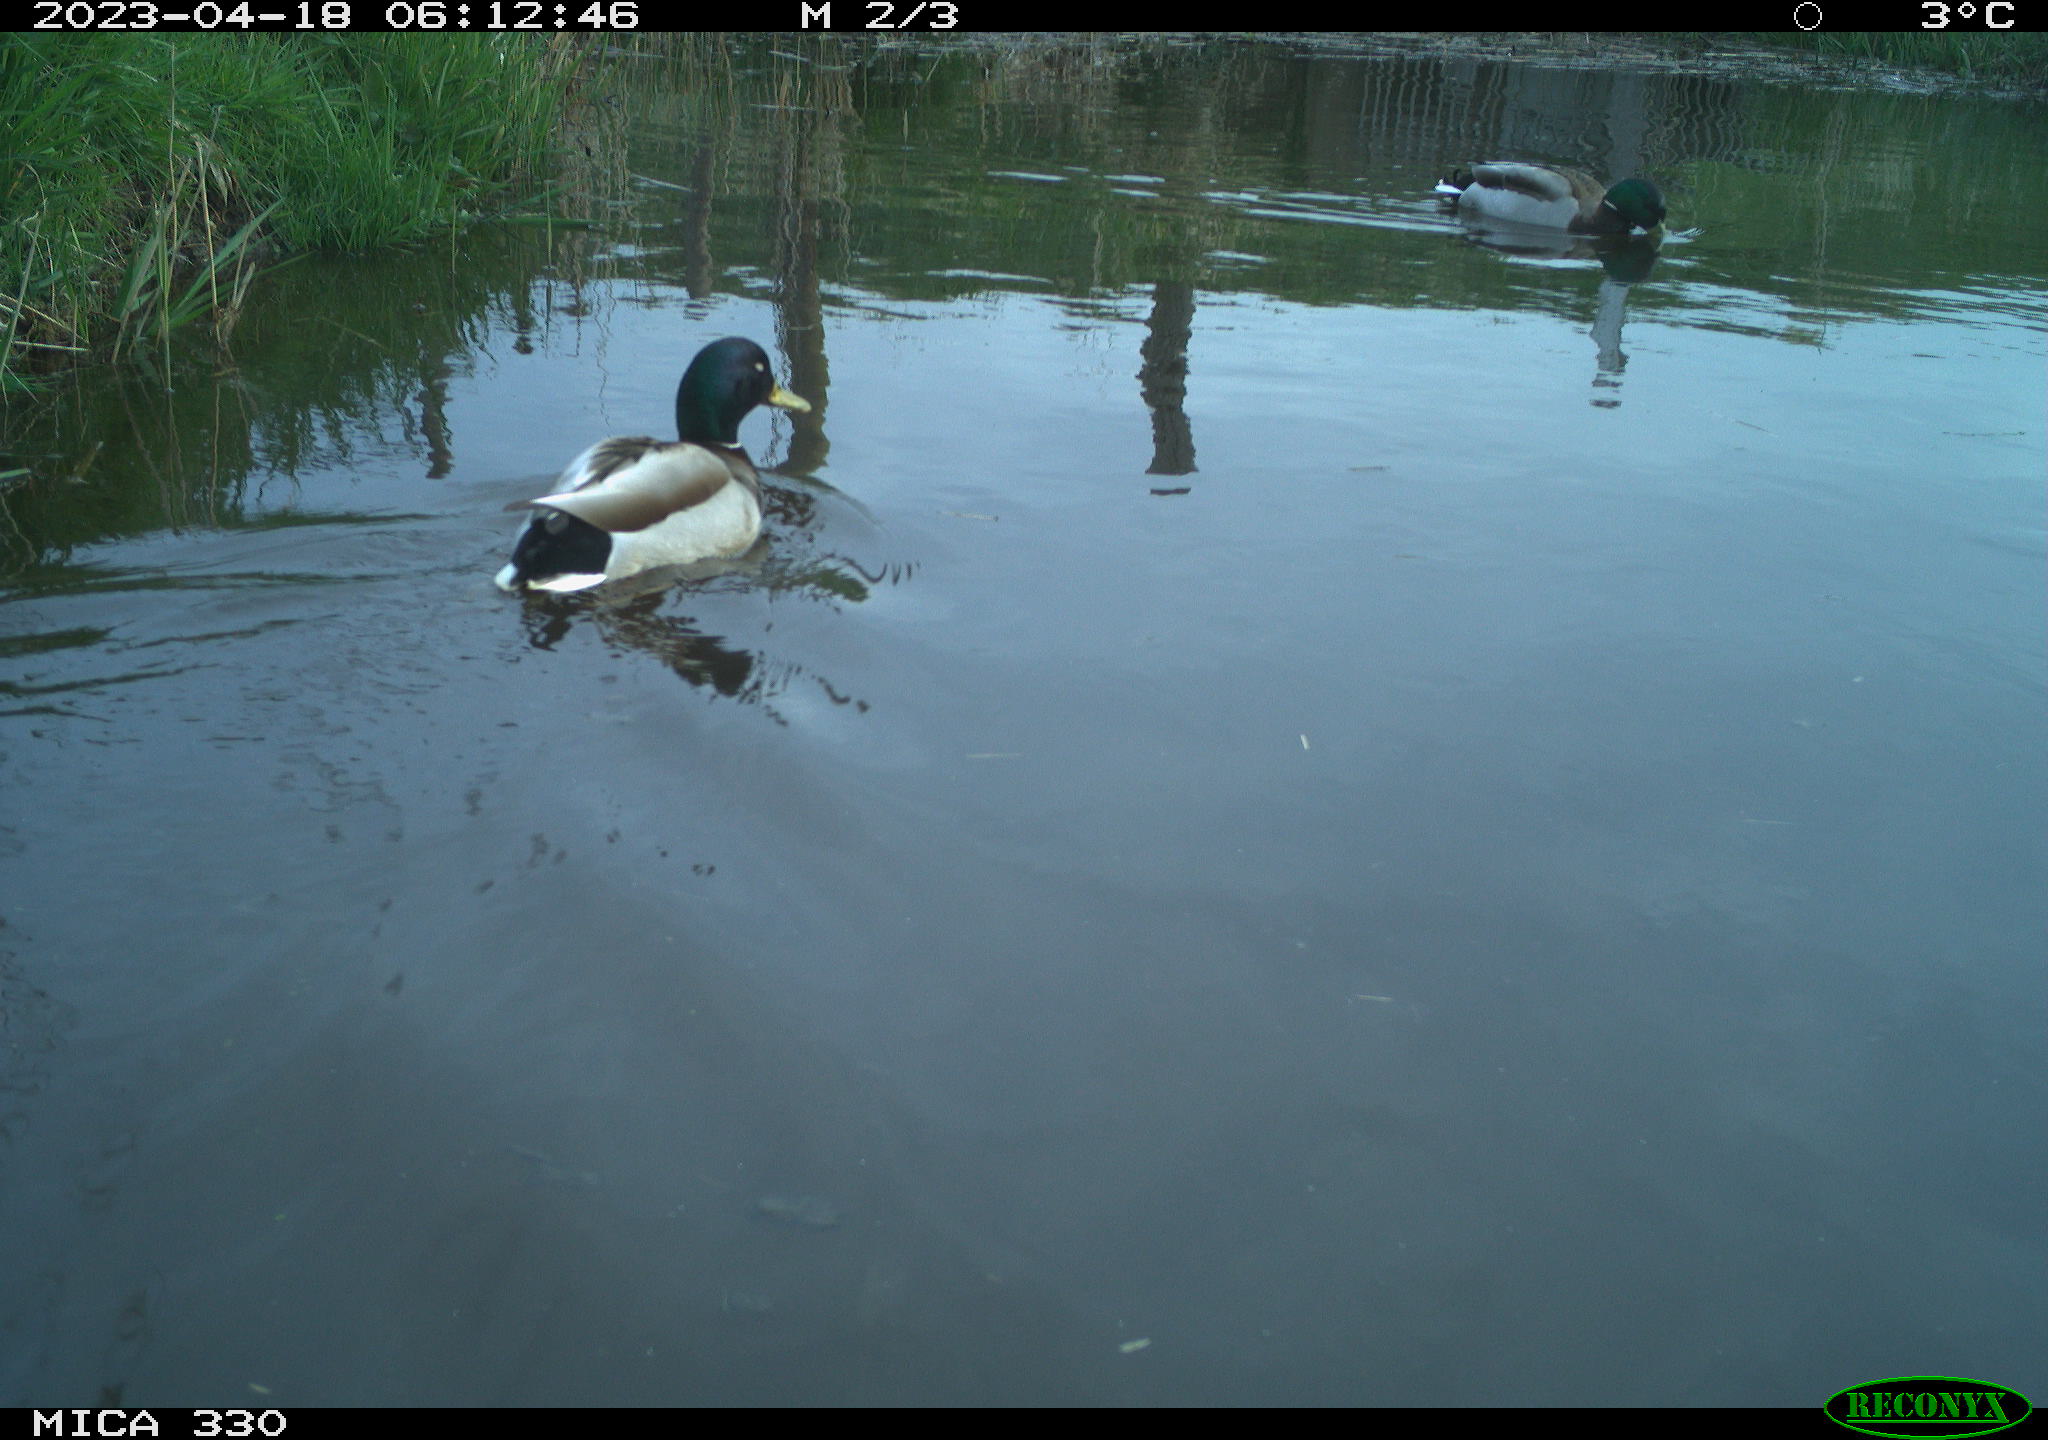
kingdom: Animalia
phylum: Chordata
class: Aves
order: Anseriformes
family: Anatidae
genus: Anas
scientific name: Anas
